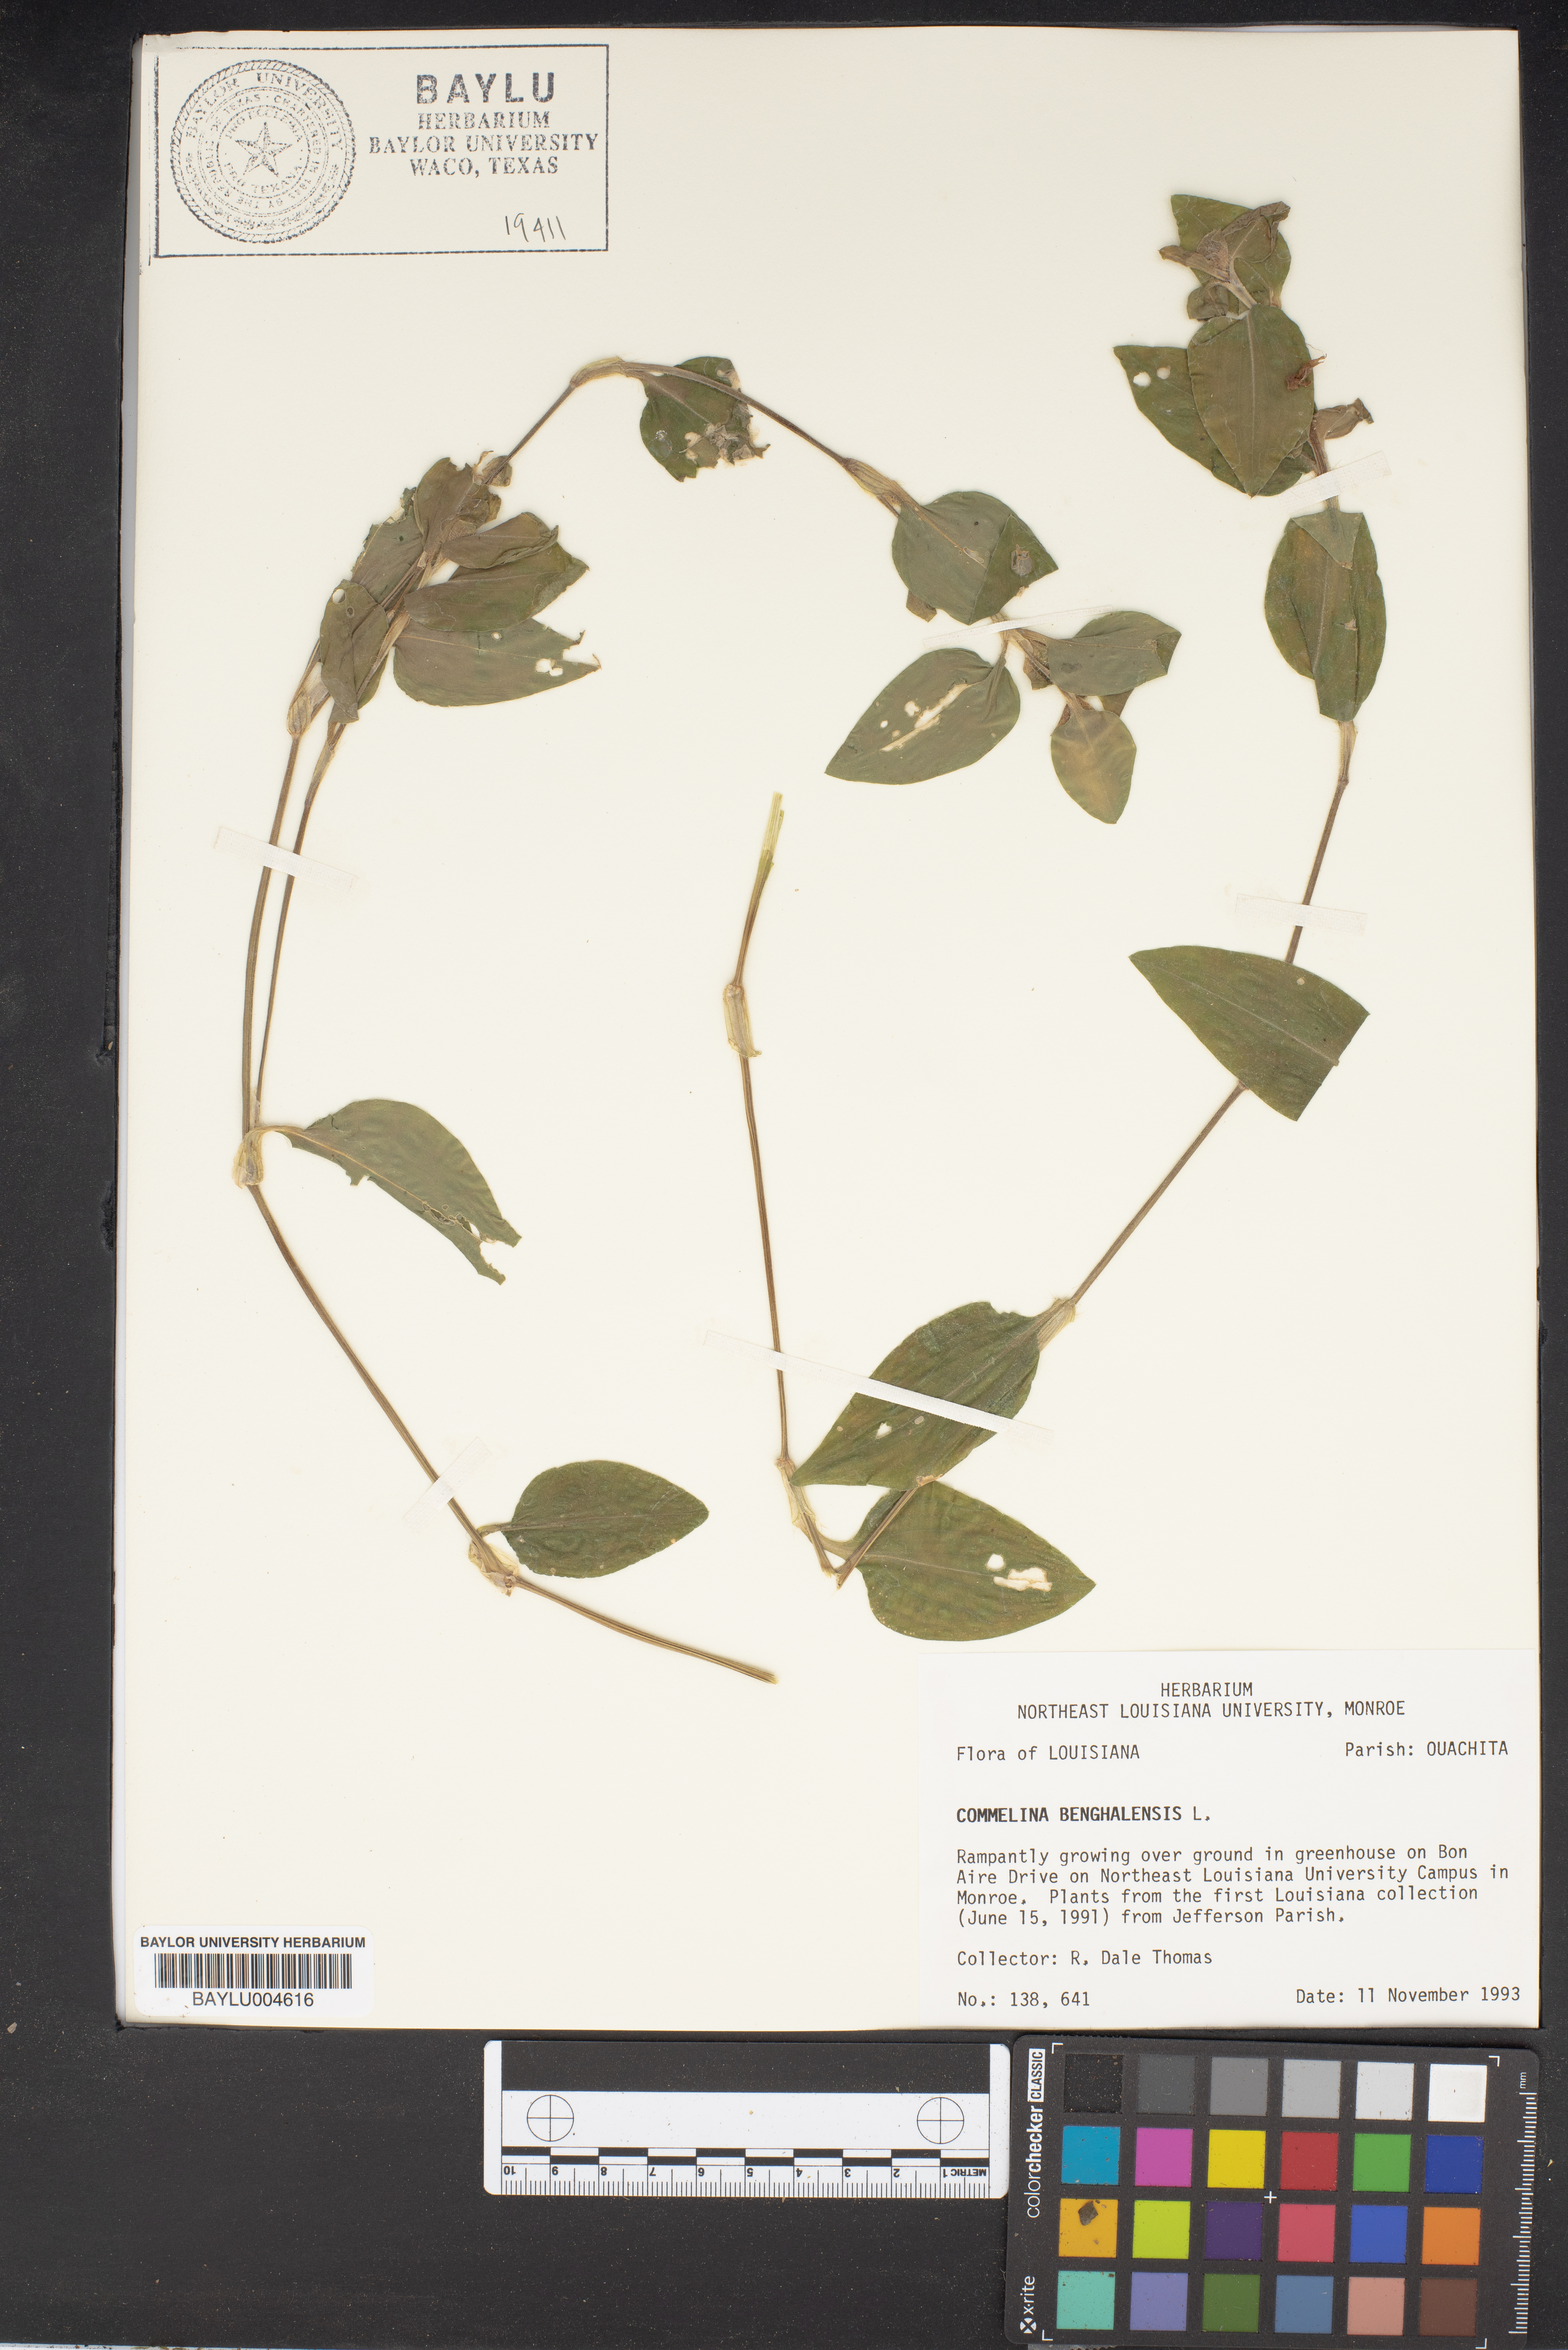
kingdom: Plantae
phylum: Tracheophyta
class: Liliopsida
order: Commelinales
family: Commelinaceae
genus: Commelina
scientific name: Commelina benghalensis
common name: Jio
